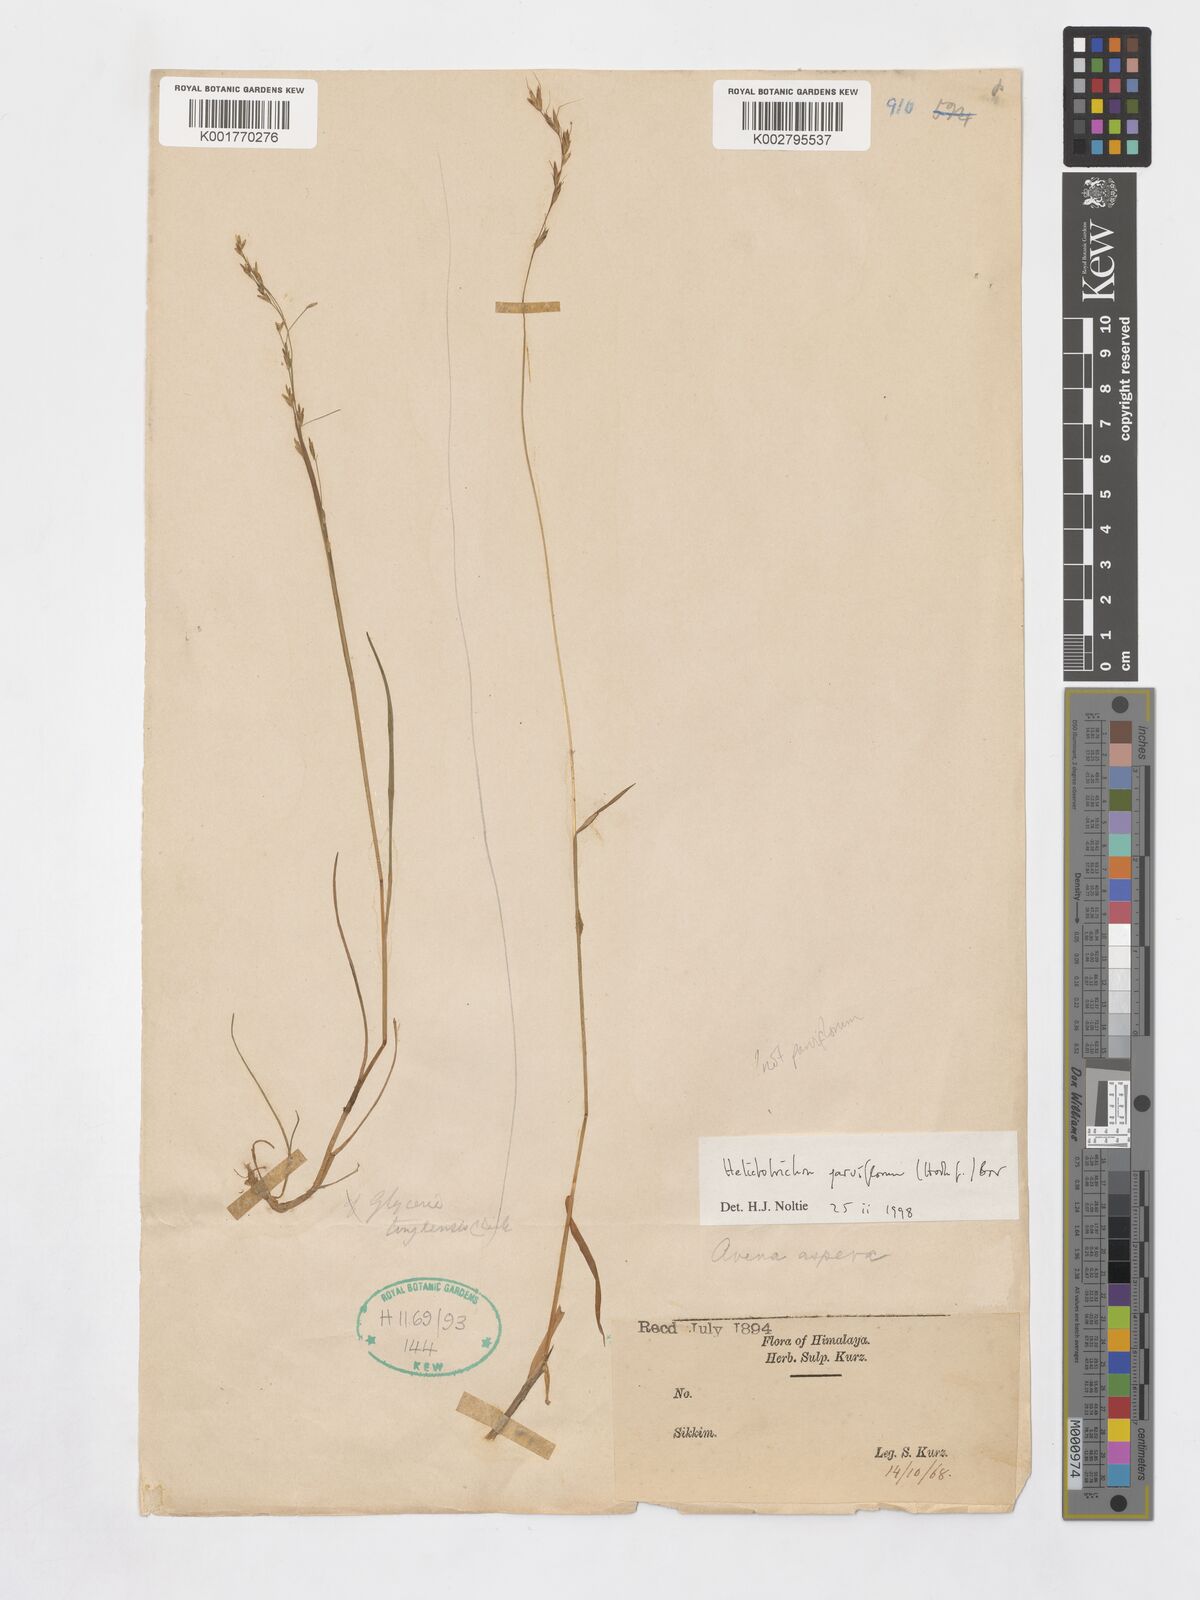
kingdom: Plantae
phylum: Tracheophyta
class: Liliopsida
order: Poales
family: Poaceae
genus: Tzveleviochloa
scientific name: Tzveleviochloa parviflora
